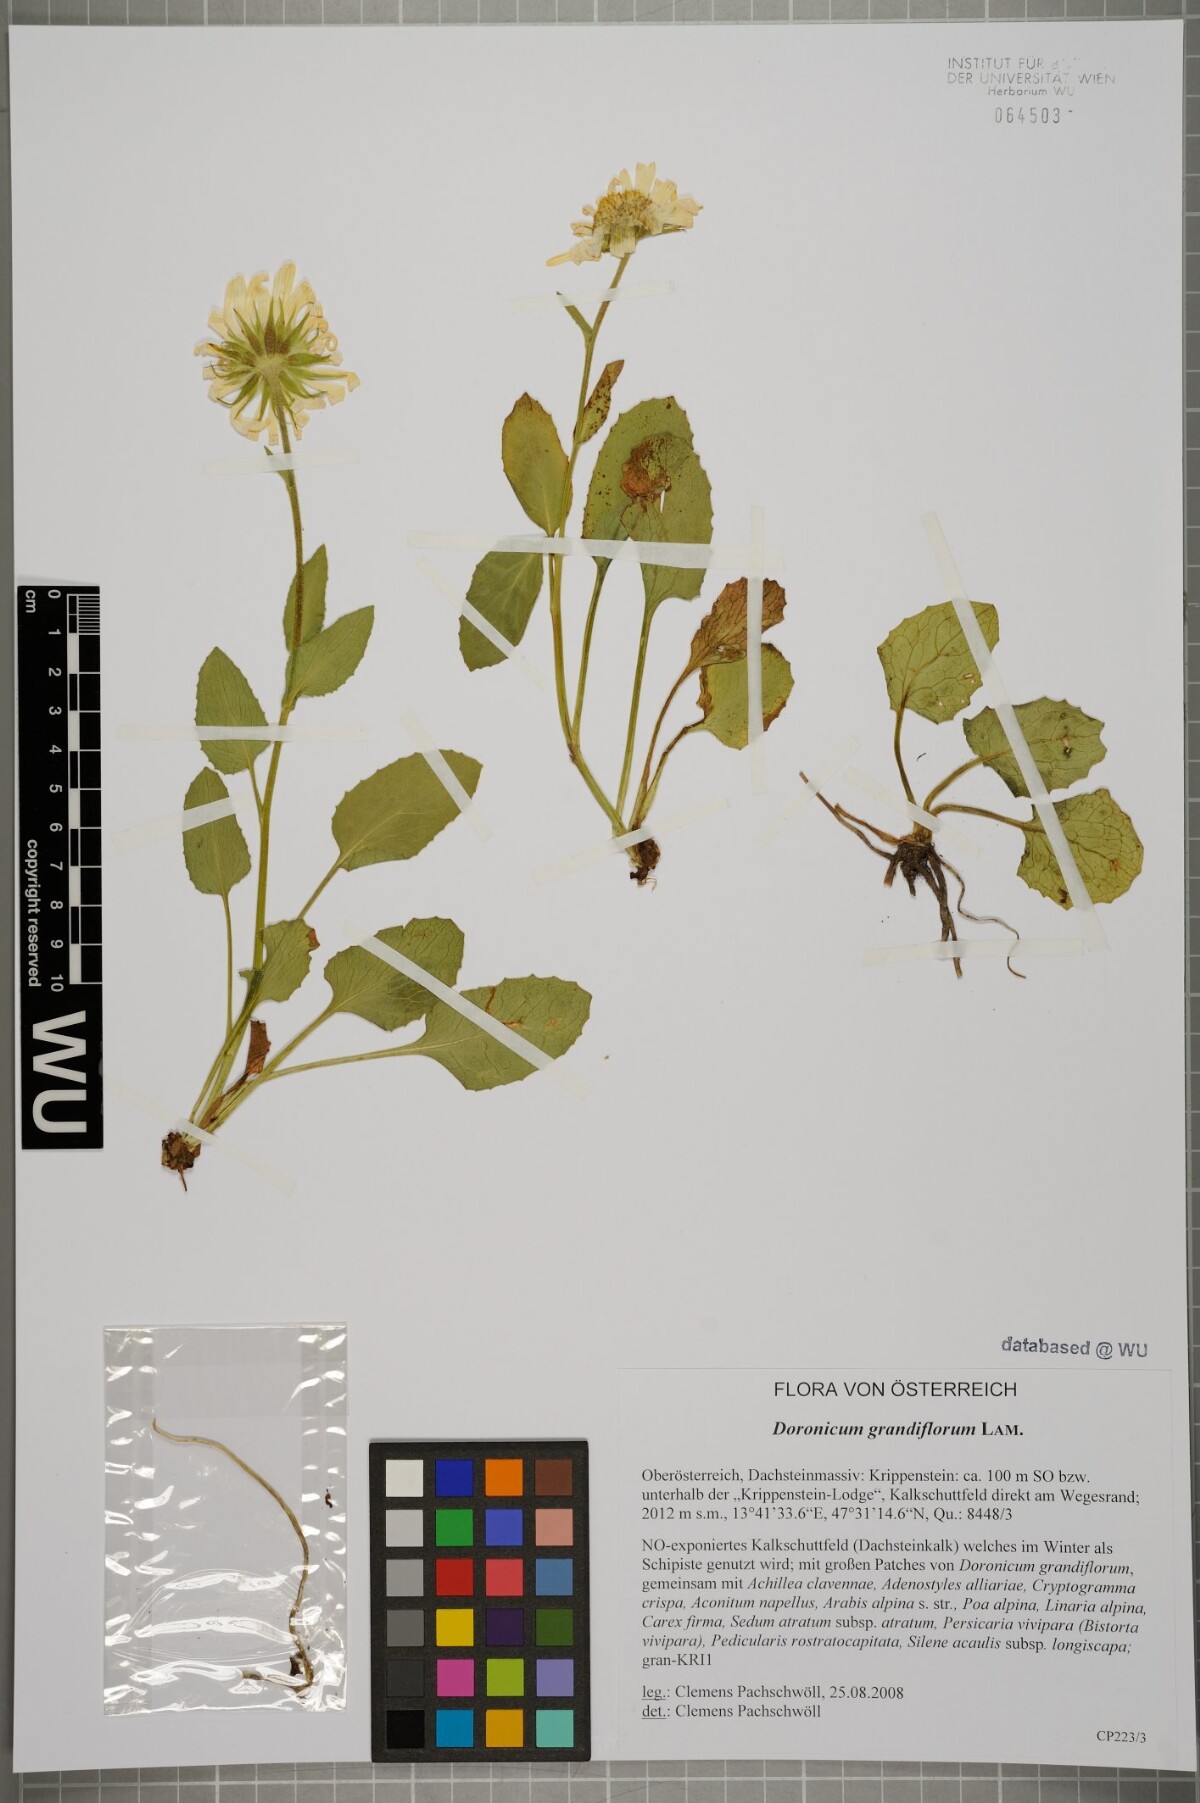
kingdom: Plantae
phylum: Tracheophyta
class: Magnoliopsida
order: Asterales
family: Asteraceae
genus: Doronicum
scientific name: Doronicum grandiflorum
